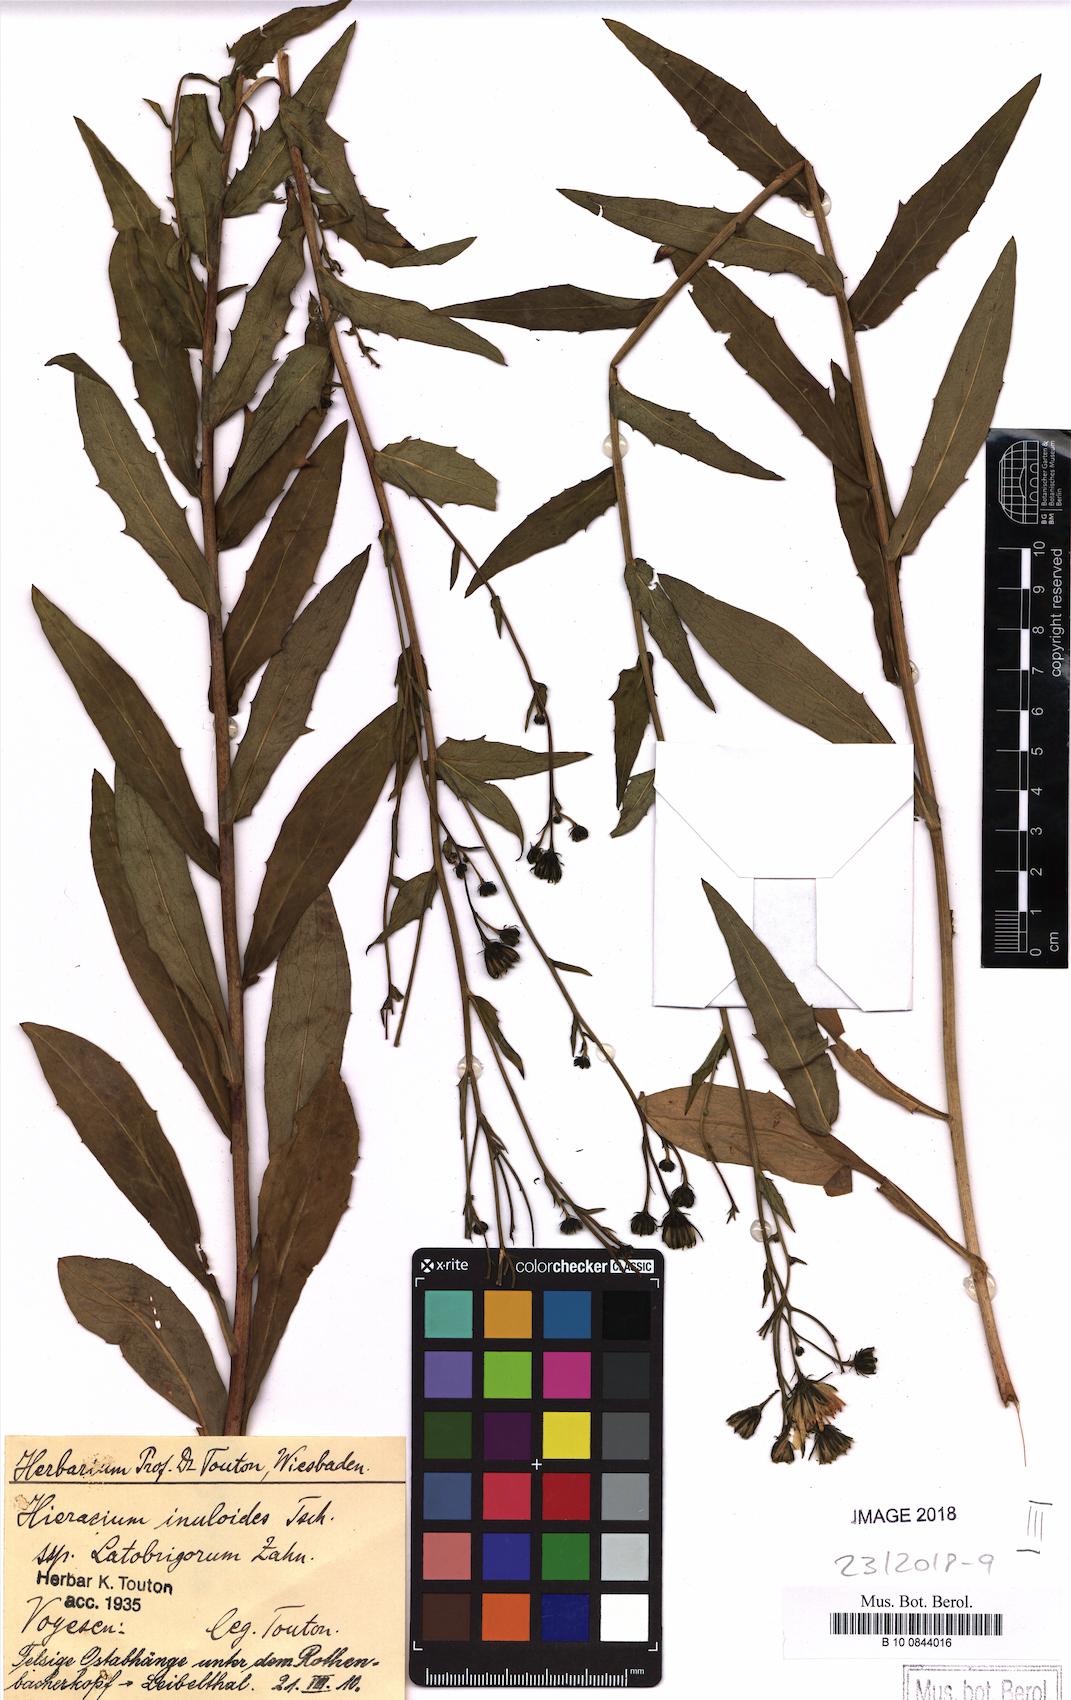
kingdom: Plantae
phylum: Tracheophyta
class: Magnoliopsida
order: Asterales
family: Asteraceae
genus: Hieracium
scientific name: Hieracium inuloides
